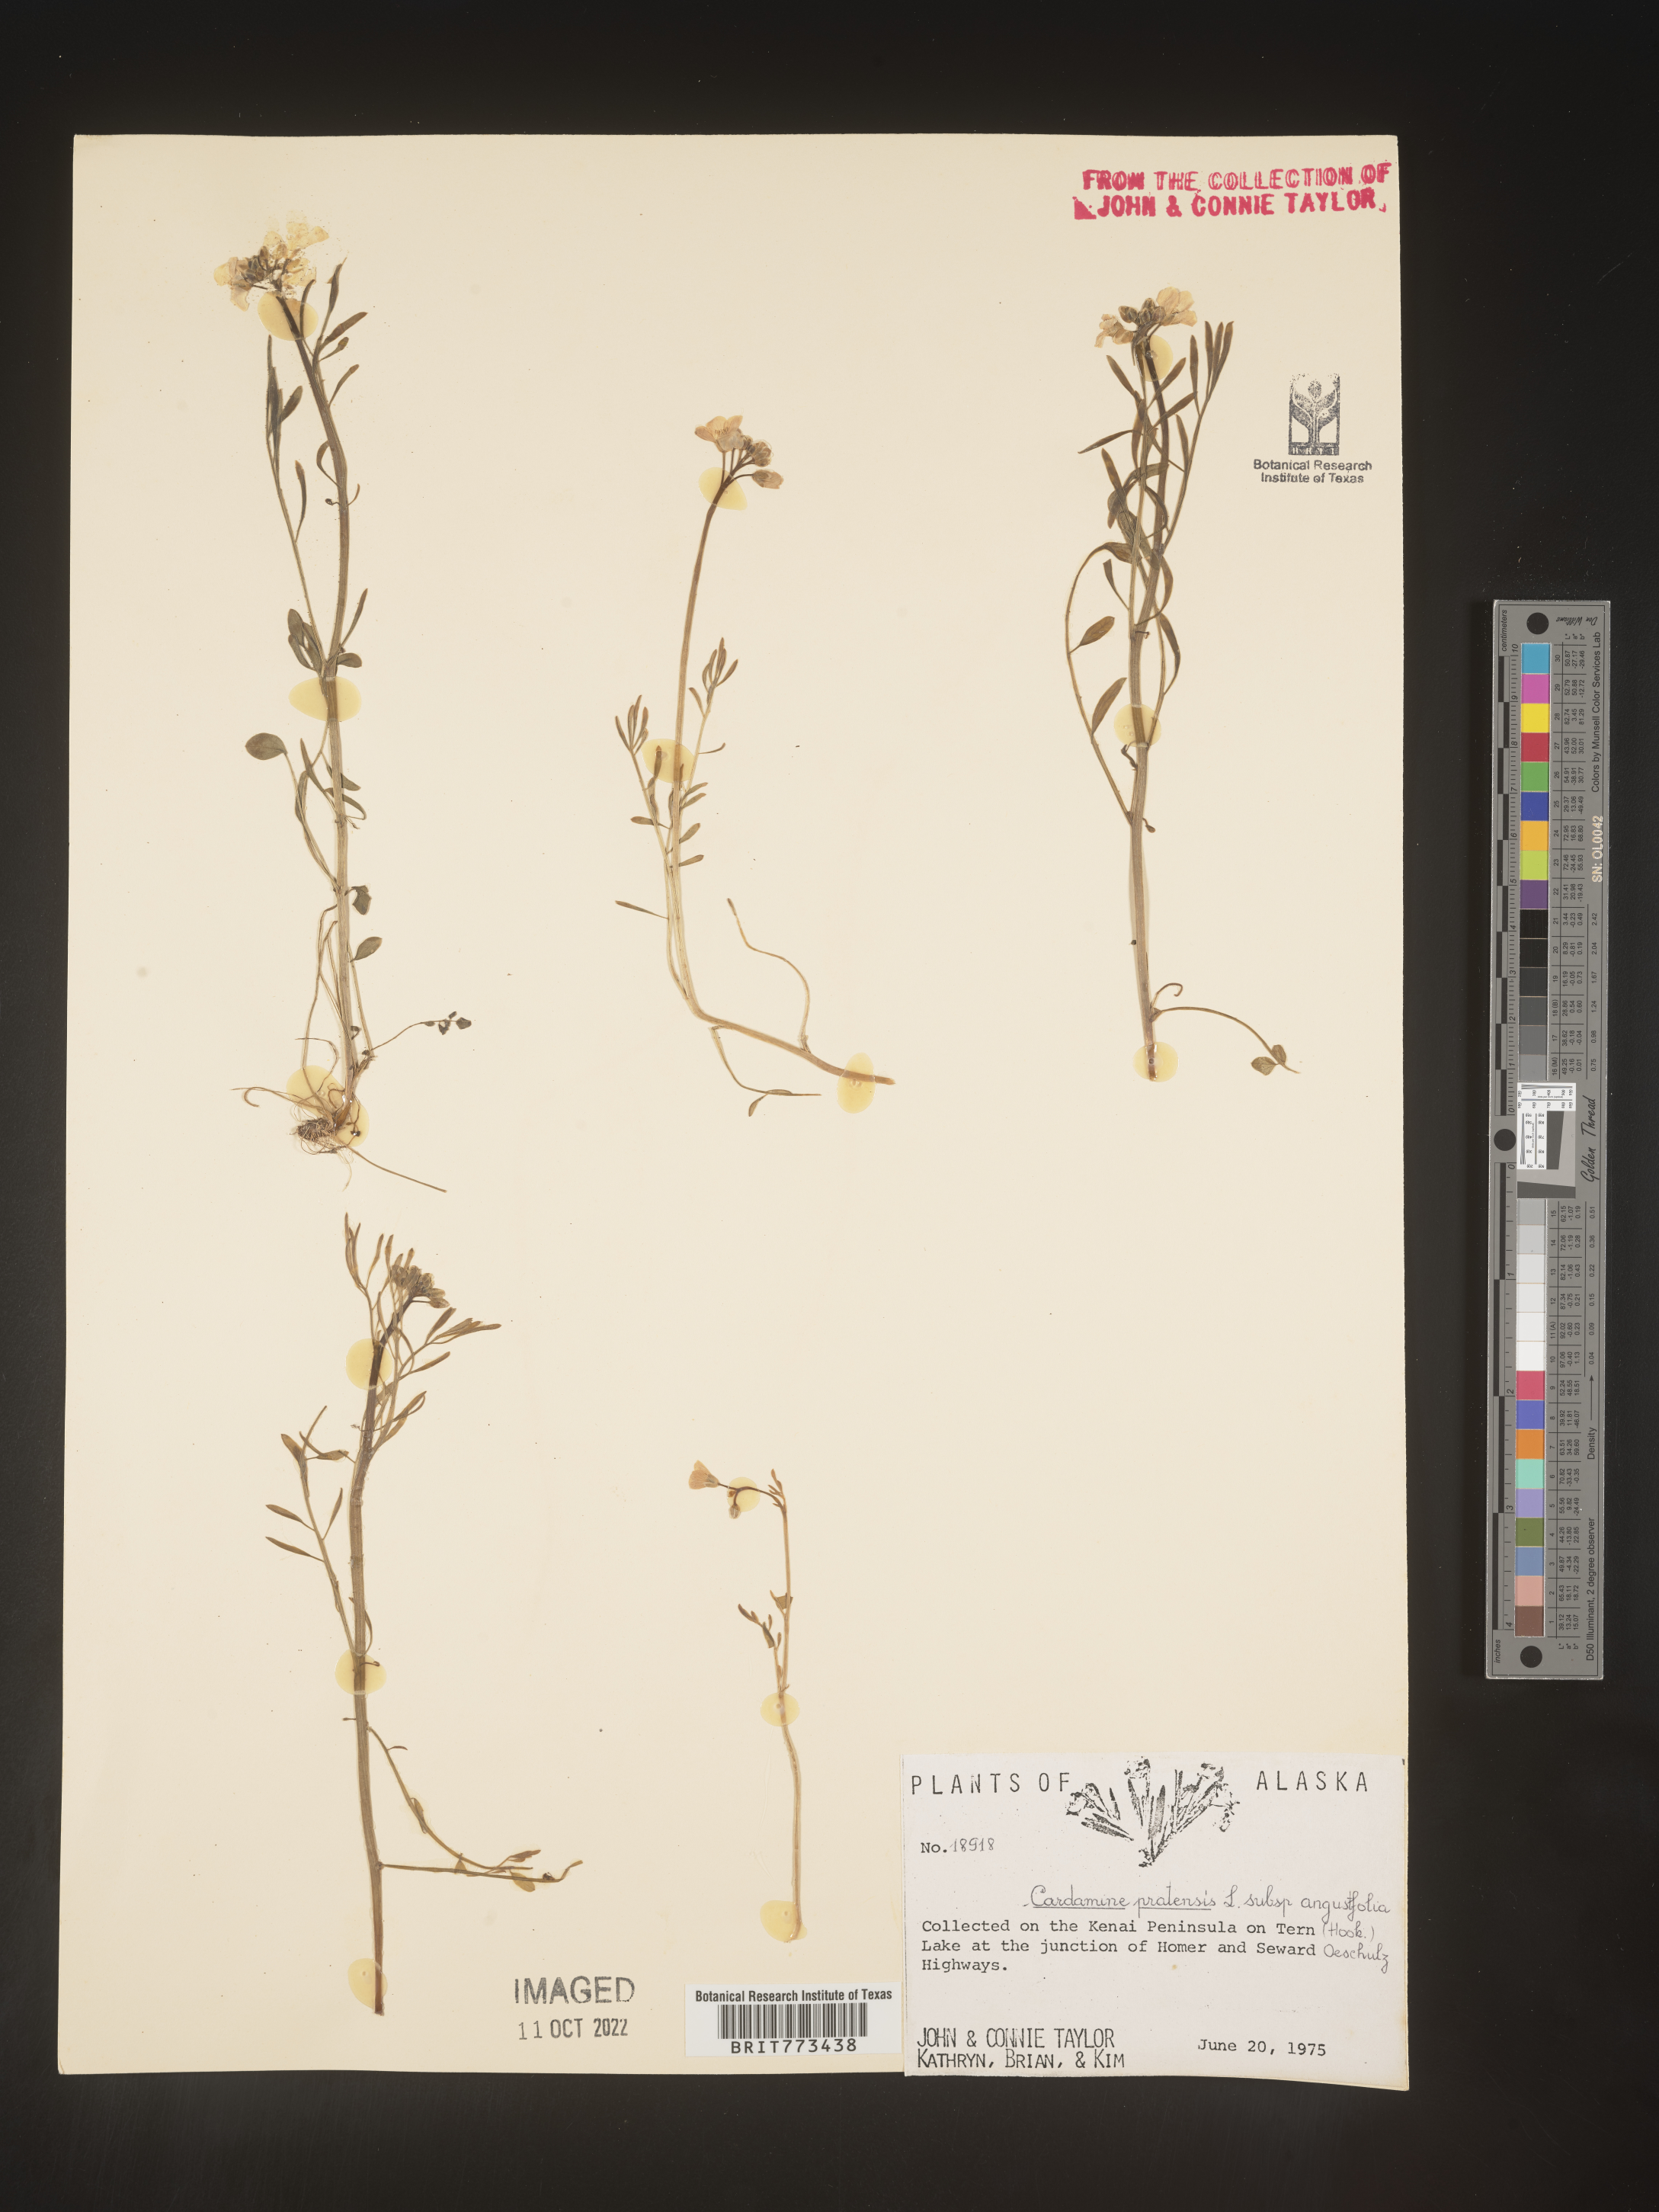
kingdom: Plantae
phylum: Tracheophyta
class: Magnoliopsida
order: Brassicales
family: Brassicaceae
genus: Cardamine
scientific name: Cardamine
